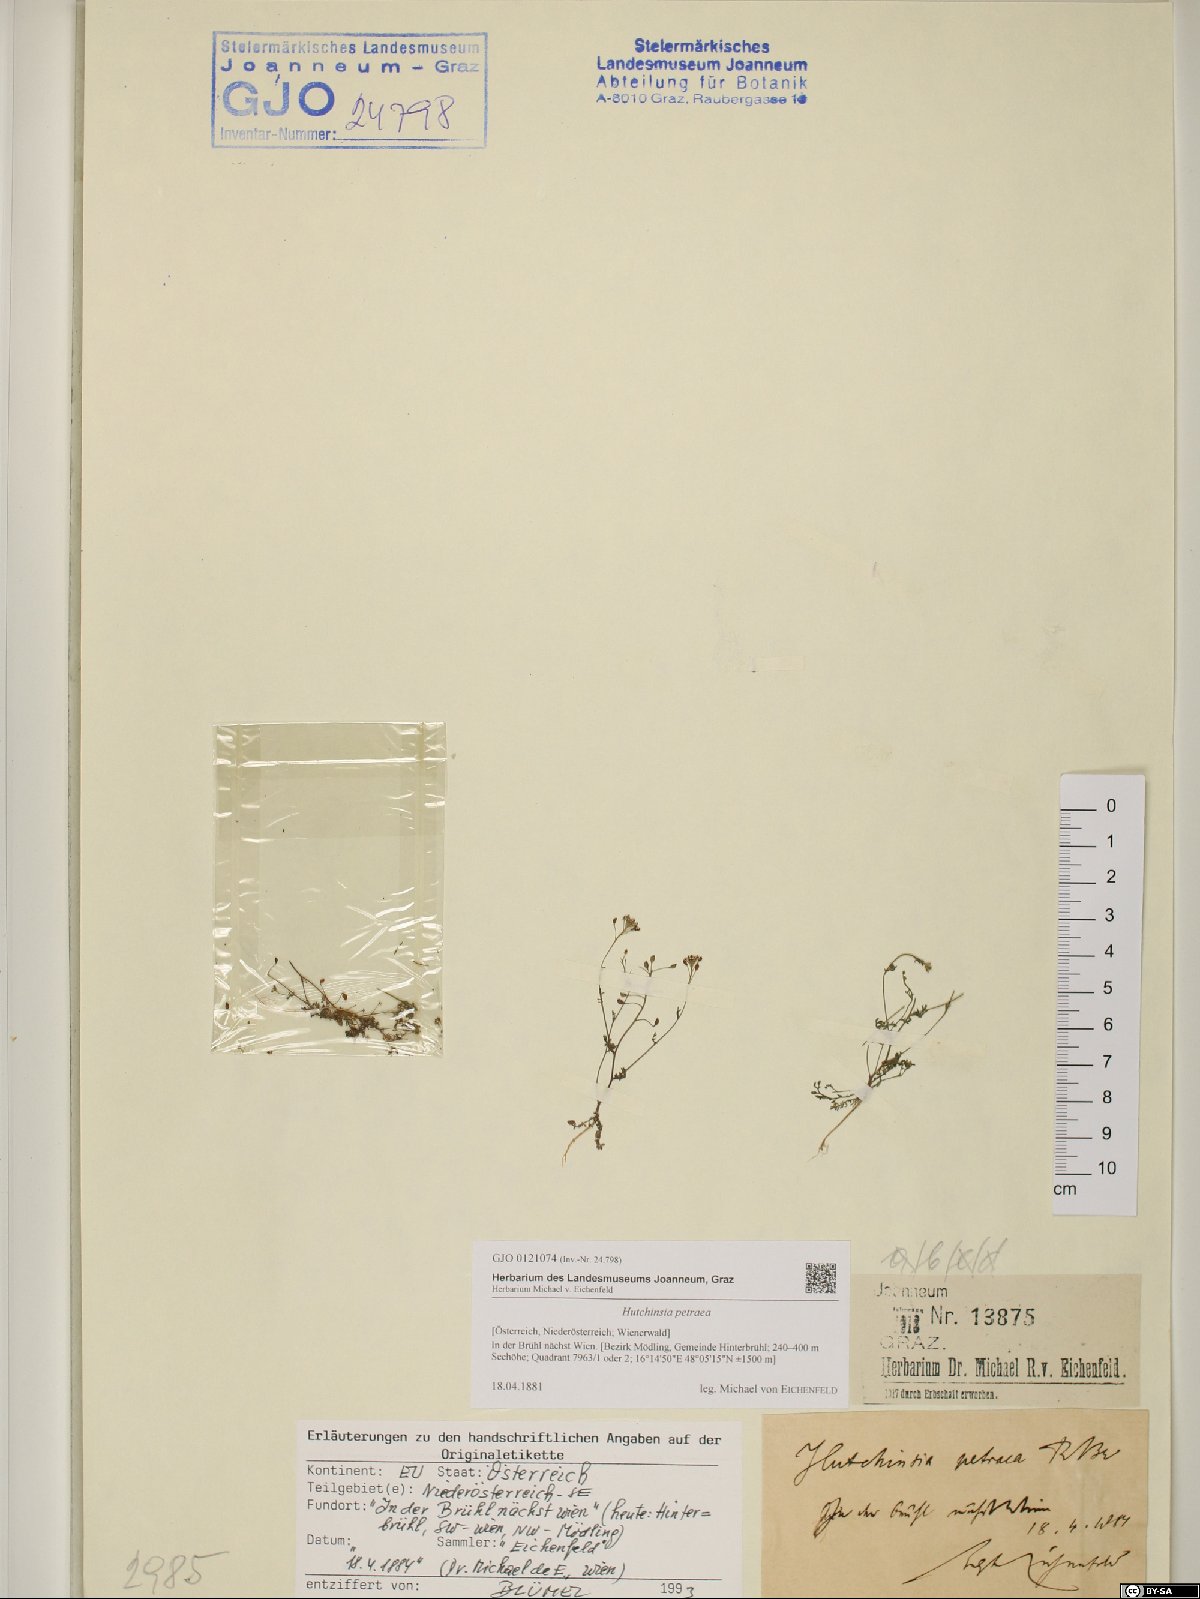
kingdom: Plantae
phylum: Tracheophyta
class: Magnoliopsida
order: Brassicales
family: Brassicaceae
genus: Hornungia
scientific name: Hornungia petraea
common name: Hutchinsia
